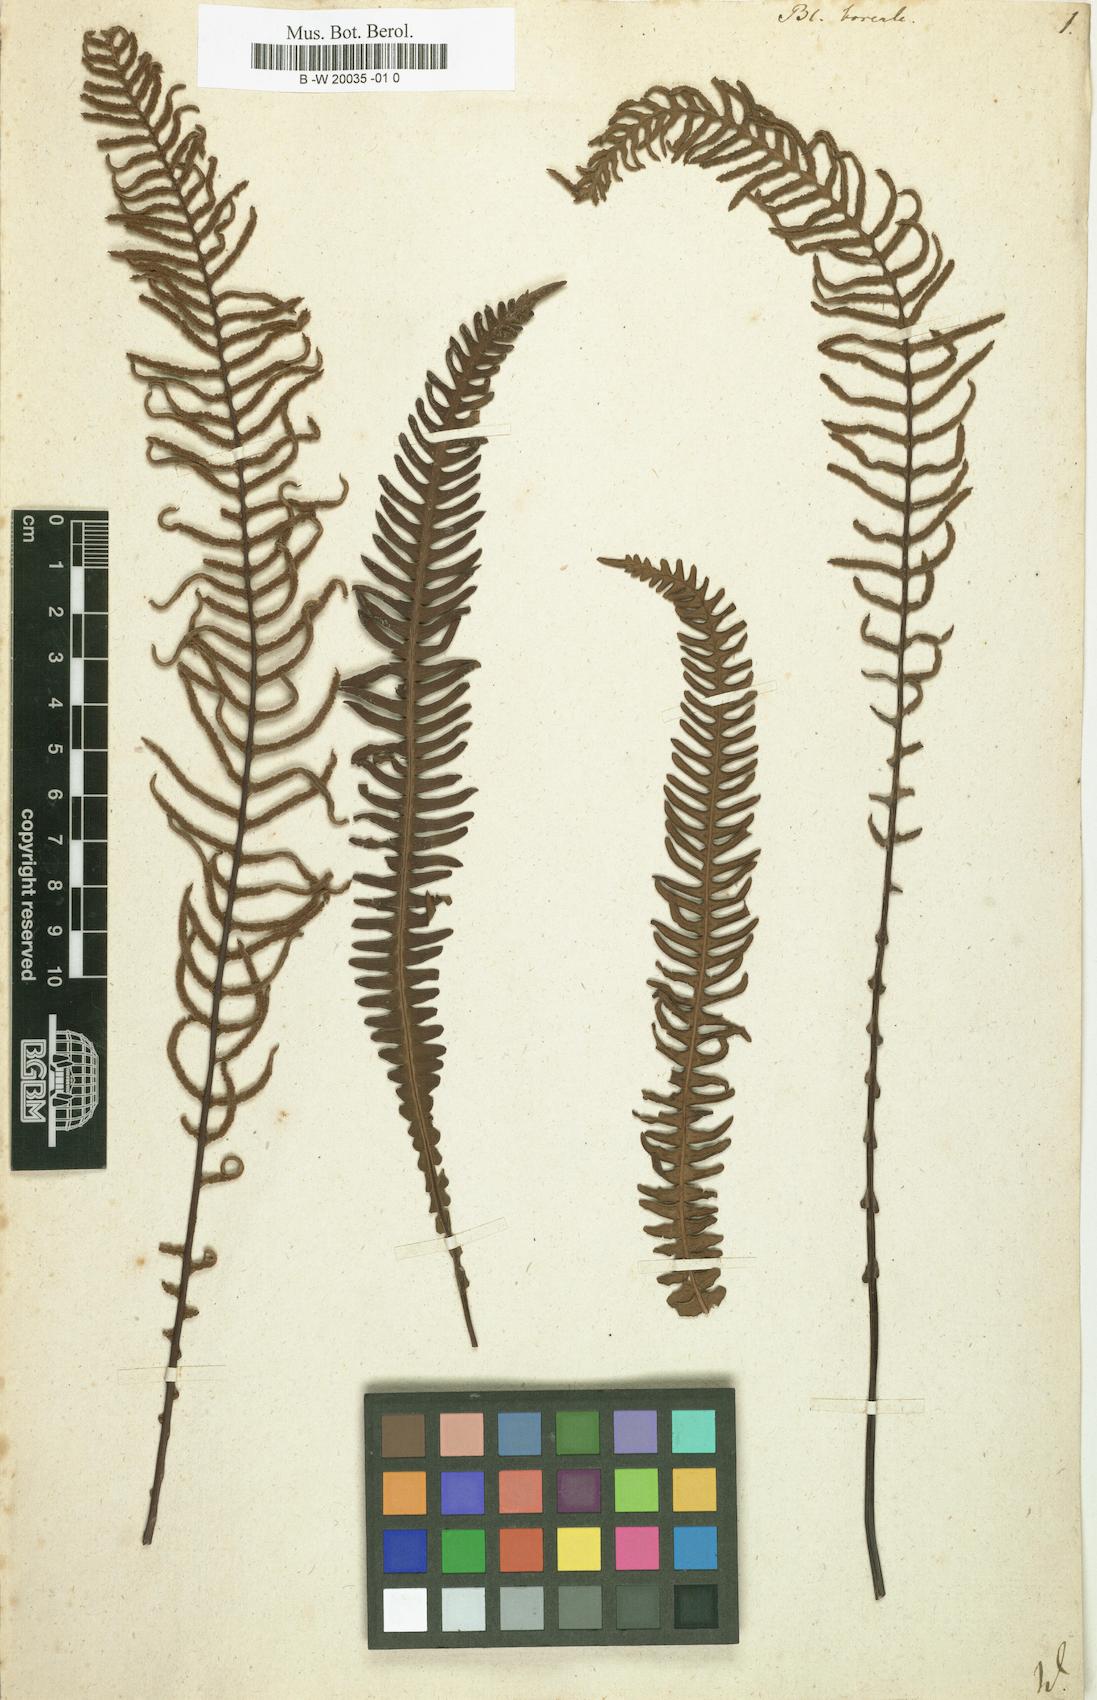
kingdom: Plantae
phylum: Tracheophyta
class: Polypodiopsida
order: Polypodiales
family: Blechnaceae
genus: Struthiopteris
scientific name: Struthiopteris spicant
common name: Deer fern
